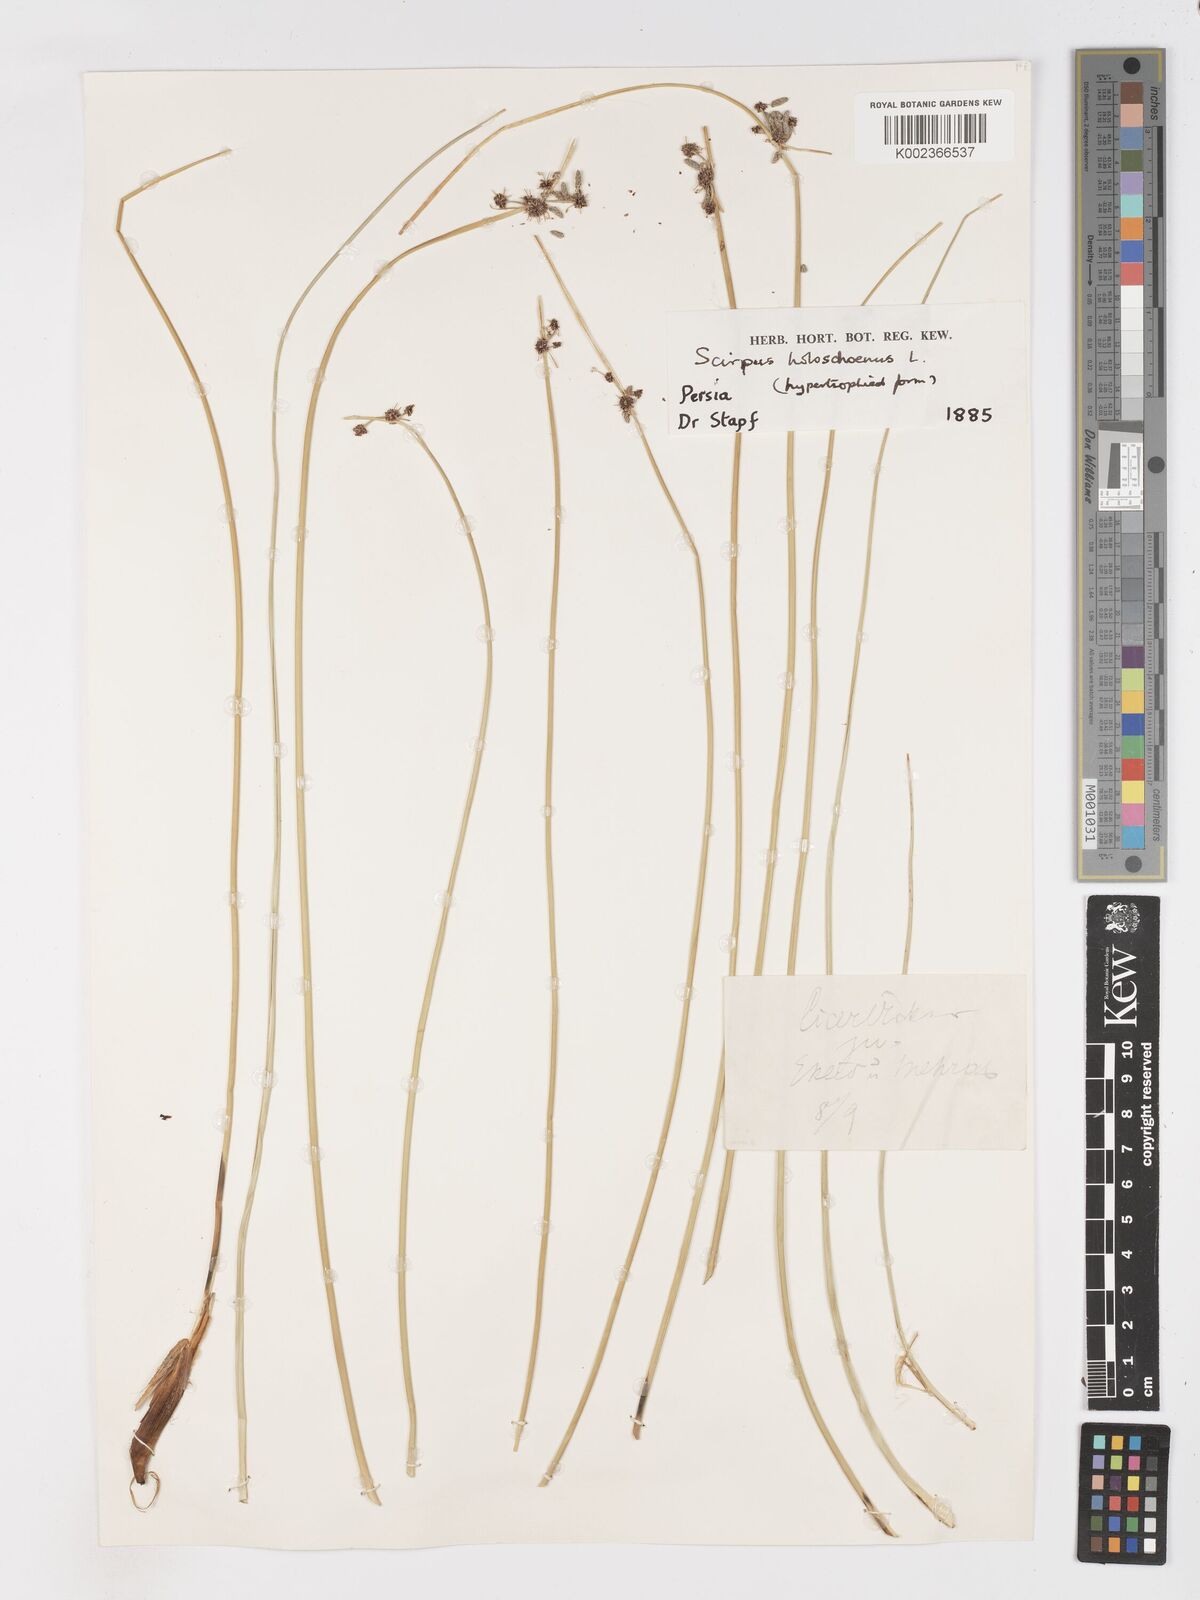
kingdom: Plantae
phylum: Tracheophyta
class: Liliopsida
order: Poales
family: Cyperaceae
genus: Scirpoides
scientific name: Scirpoides holoschoenus
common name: Round-headed club-rush
